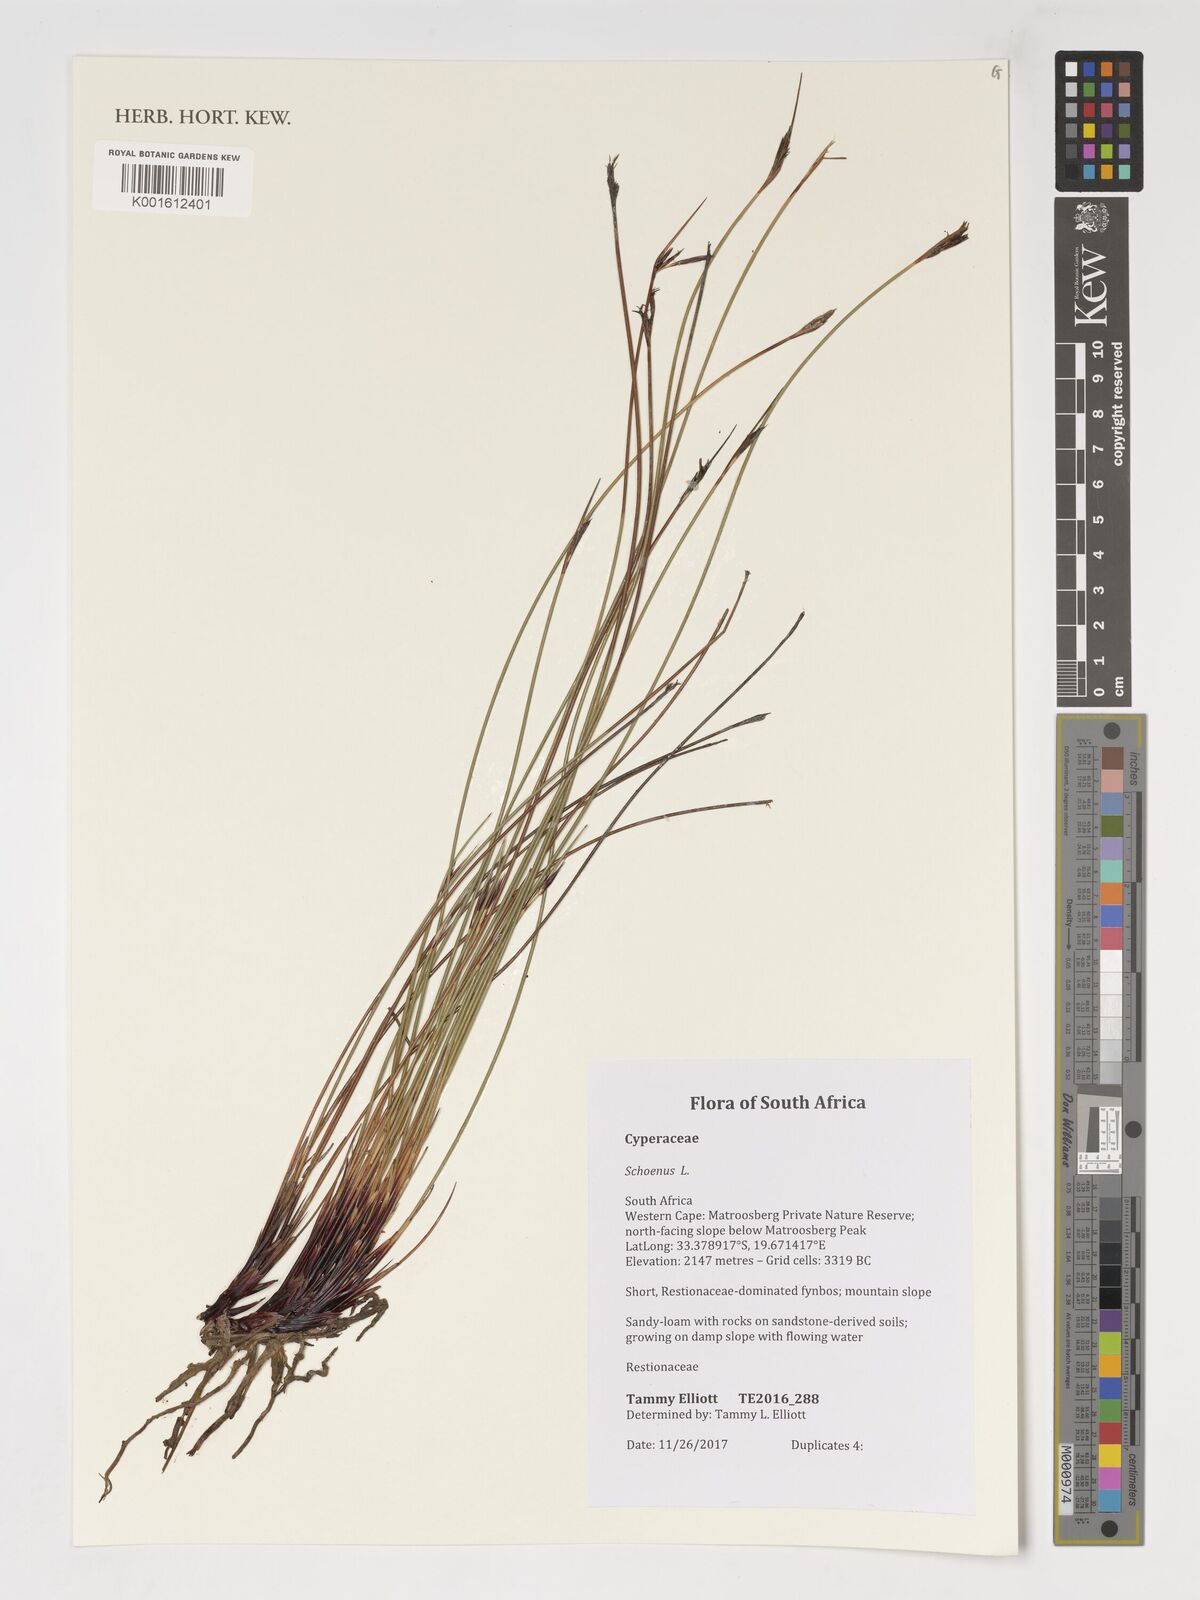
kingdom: Plantae
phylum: Tracheophyta
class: Liliopsida
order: Poales
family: Cyperaceae
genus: Schoenus
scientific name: Schoenus
